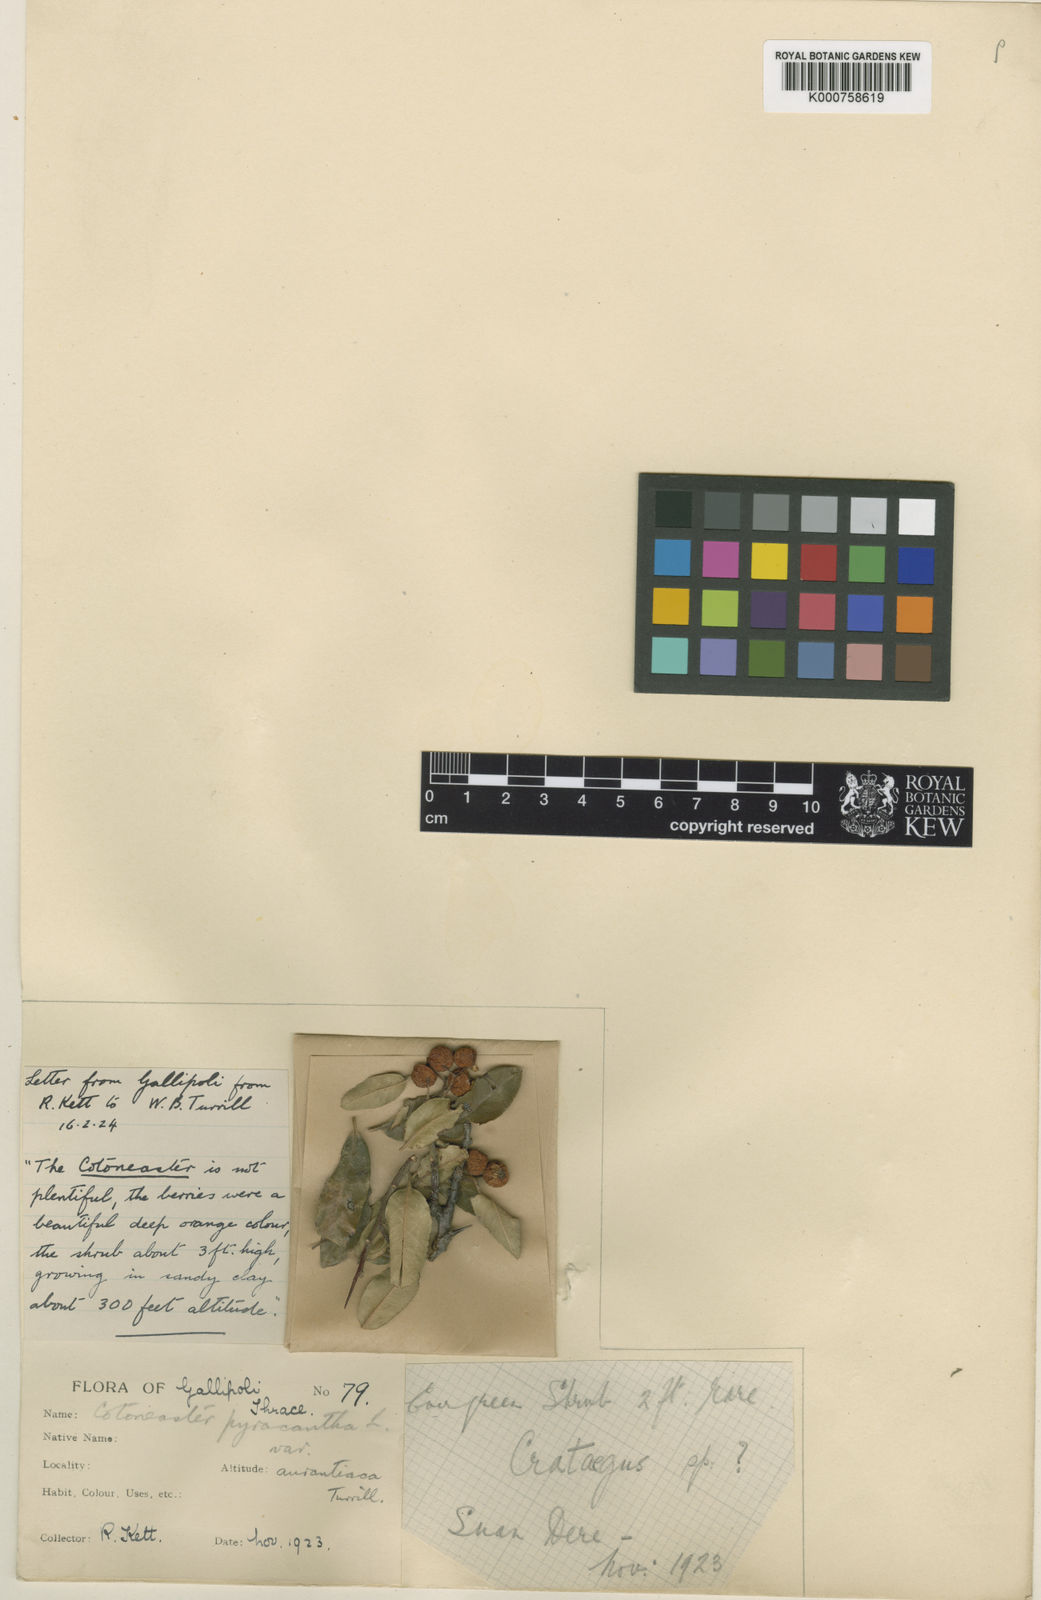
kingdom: Plantae
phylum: Tracheophyta
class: Magnoliopsida
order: Rosales
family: Rosaceae
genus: Pyracantha
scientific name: Pyracantha coccinea
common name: Firethorn
